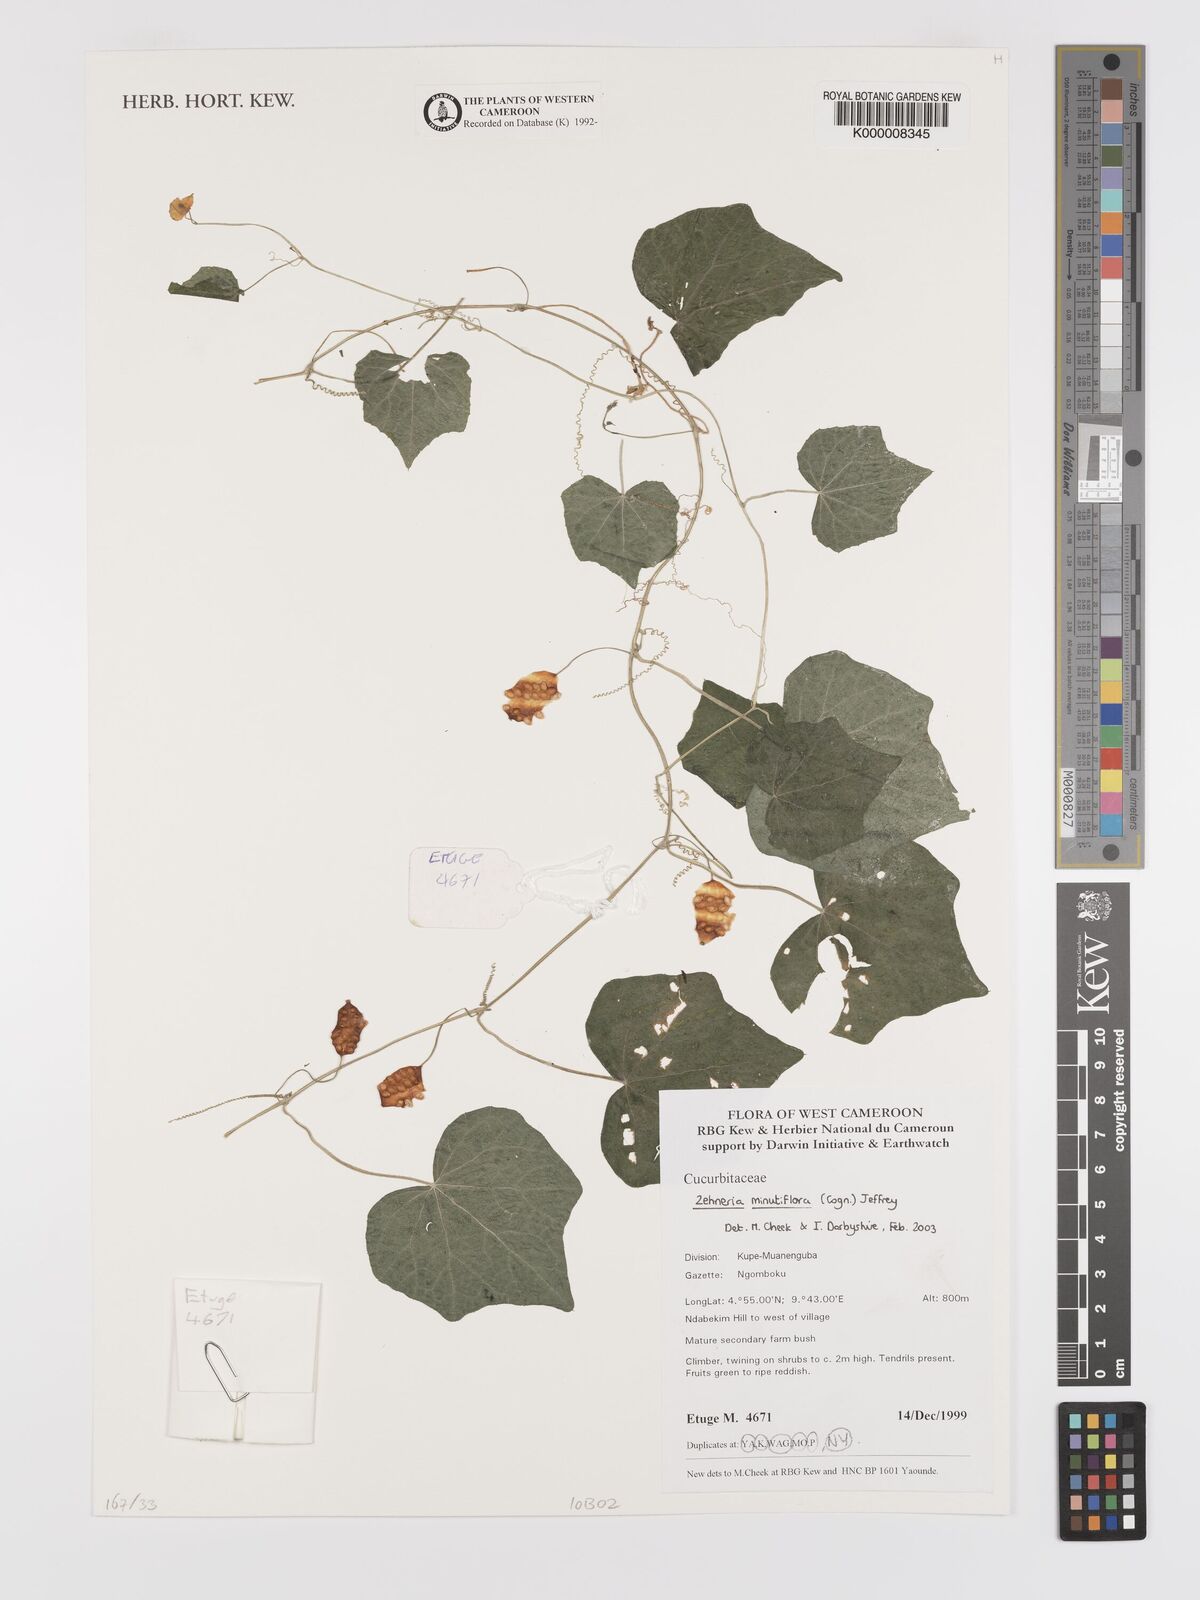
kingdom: Plantae
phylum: Tracheophyta
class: Magnoliopsida
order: Cucurbitales
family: Cucurbitaceae
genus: Zehneria
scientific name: Zehneria minutiflora
